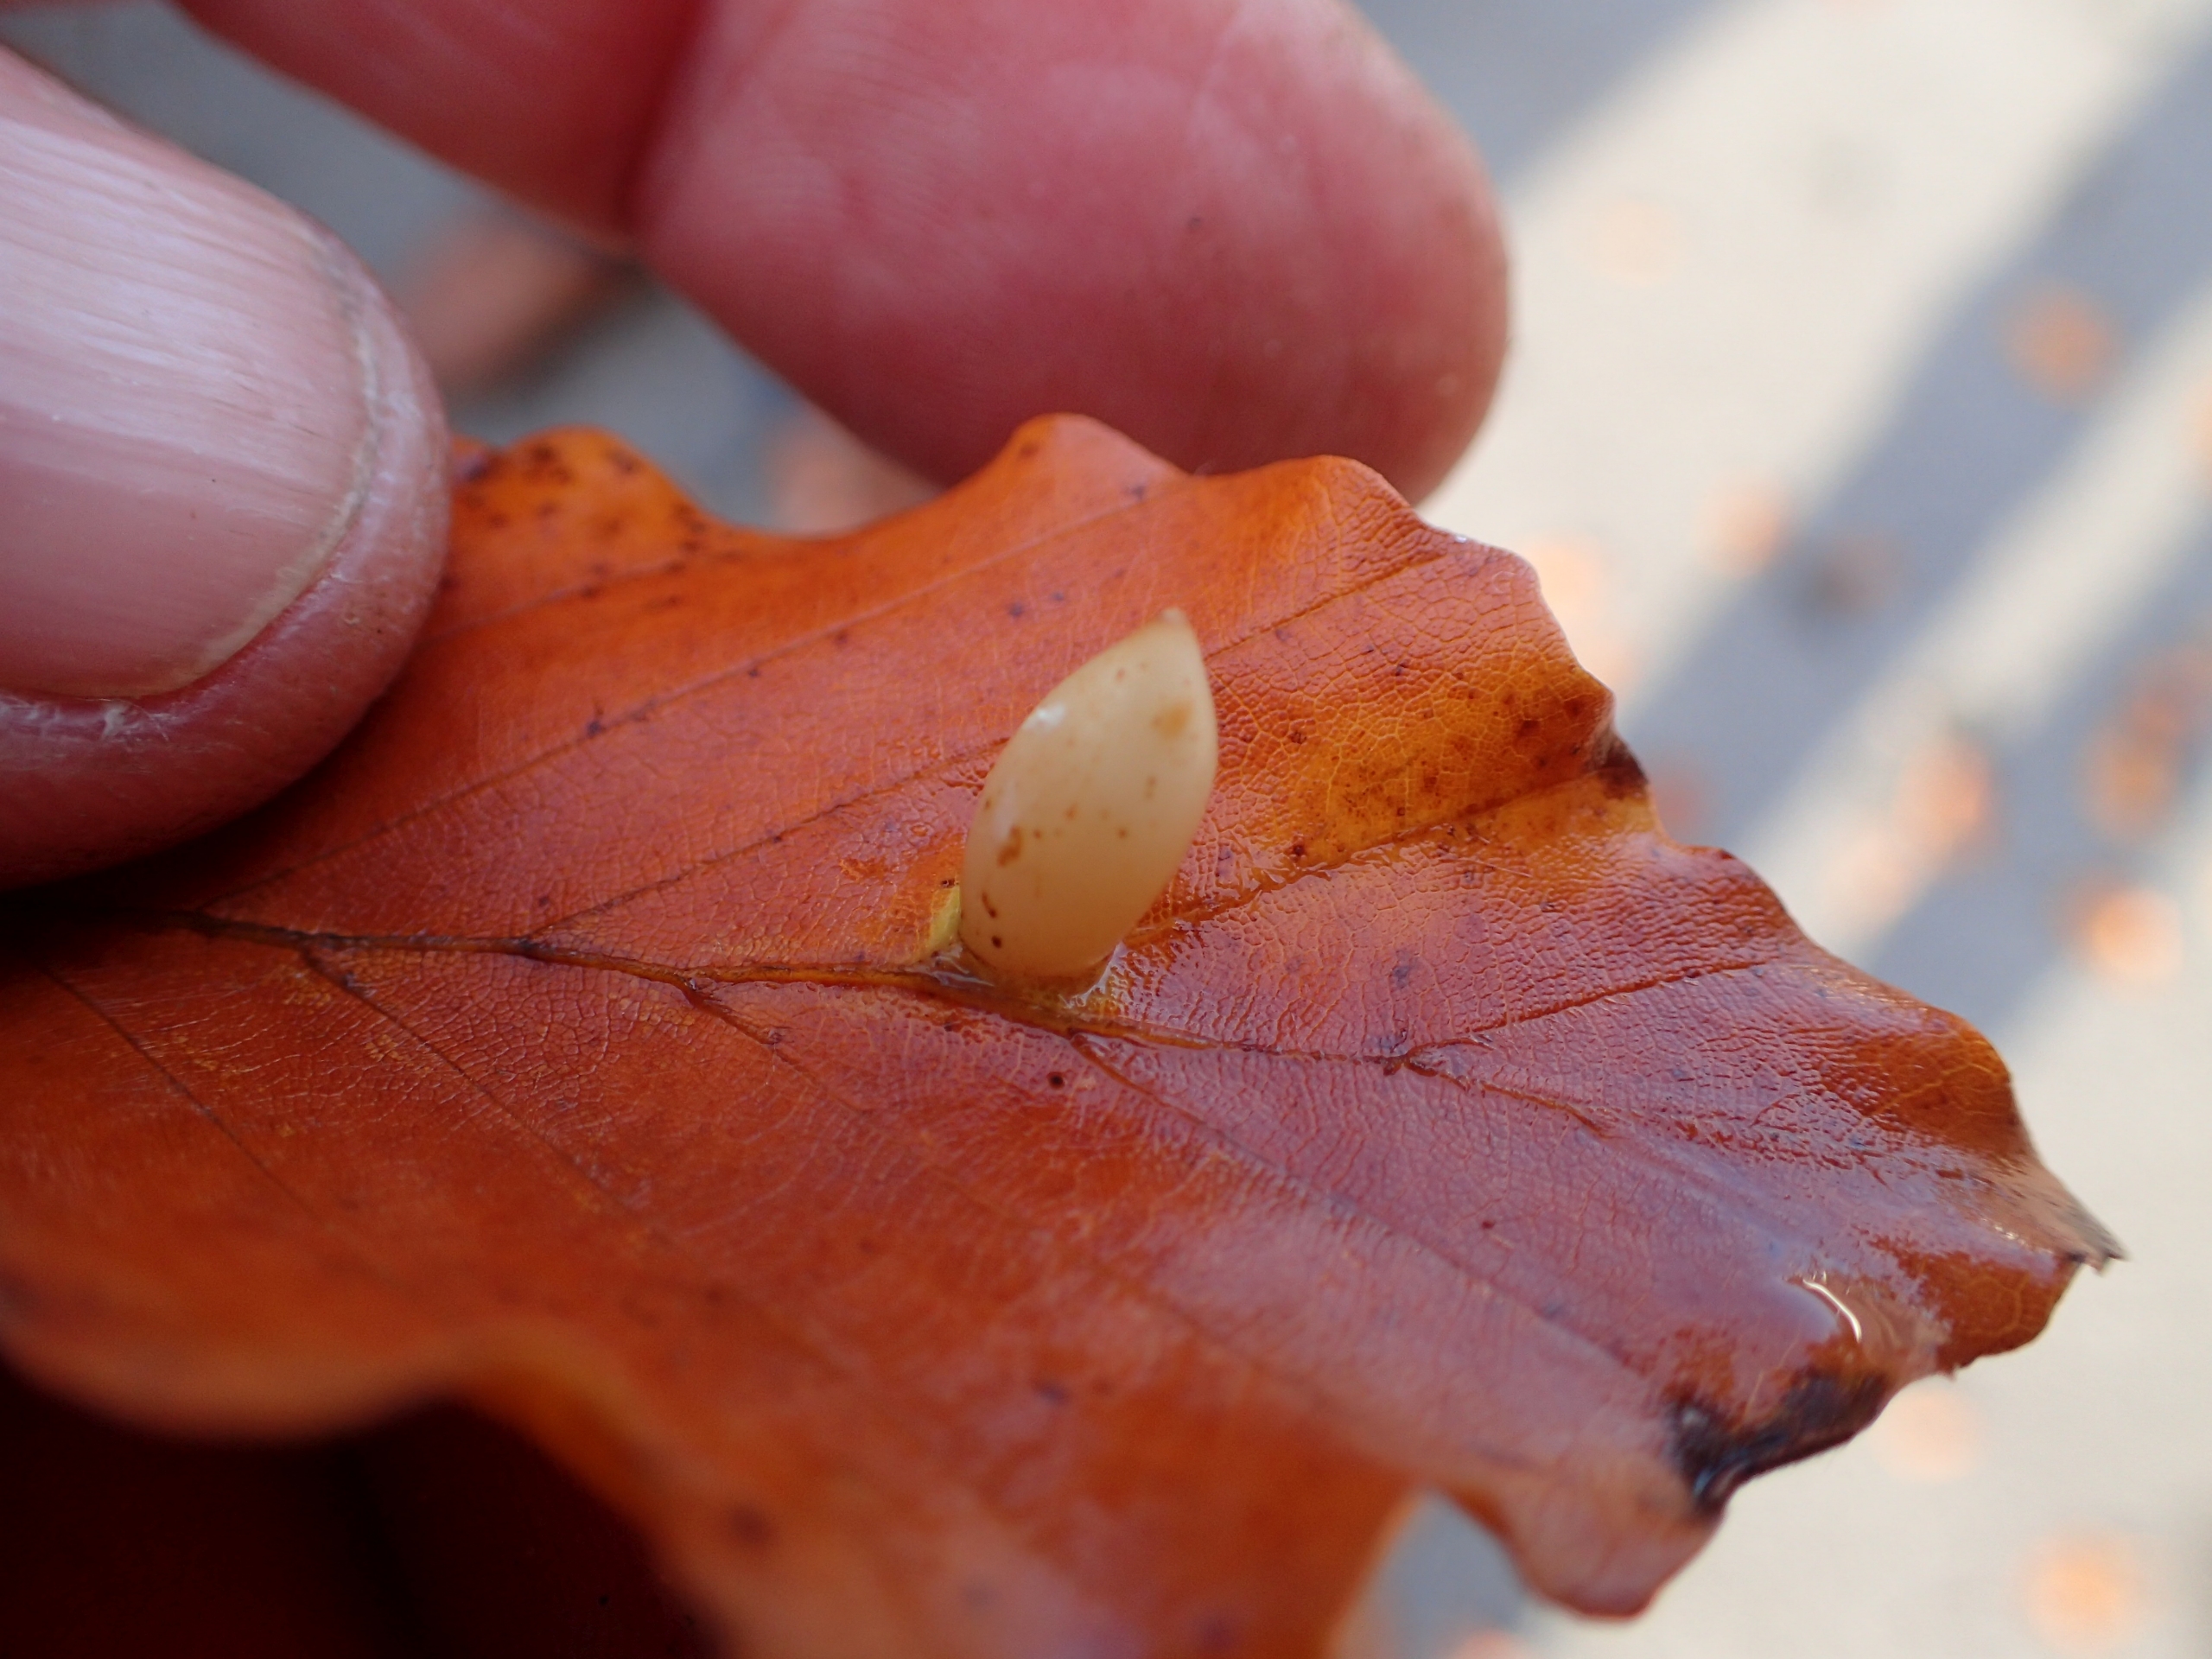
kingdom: Animalia
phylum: Arthropoda
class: Insecta
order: Diptera
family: Cecidomyiidae
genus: Mikiola
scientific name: Mikiola fagi
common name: Bøgegalmyg
